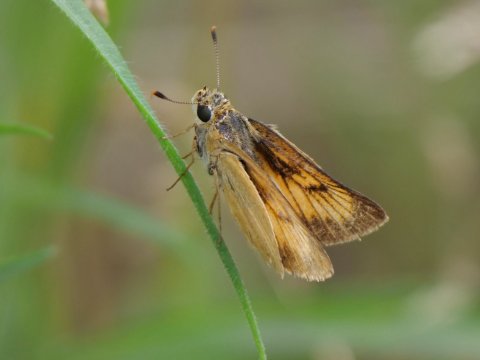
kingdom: Animalia
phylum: Arthropoda
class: Insecta
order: Lepidoptera
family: Hesperiidae
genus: Atrytone
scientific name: Atrytone delaware
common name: Delaware Skipper
